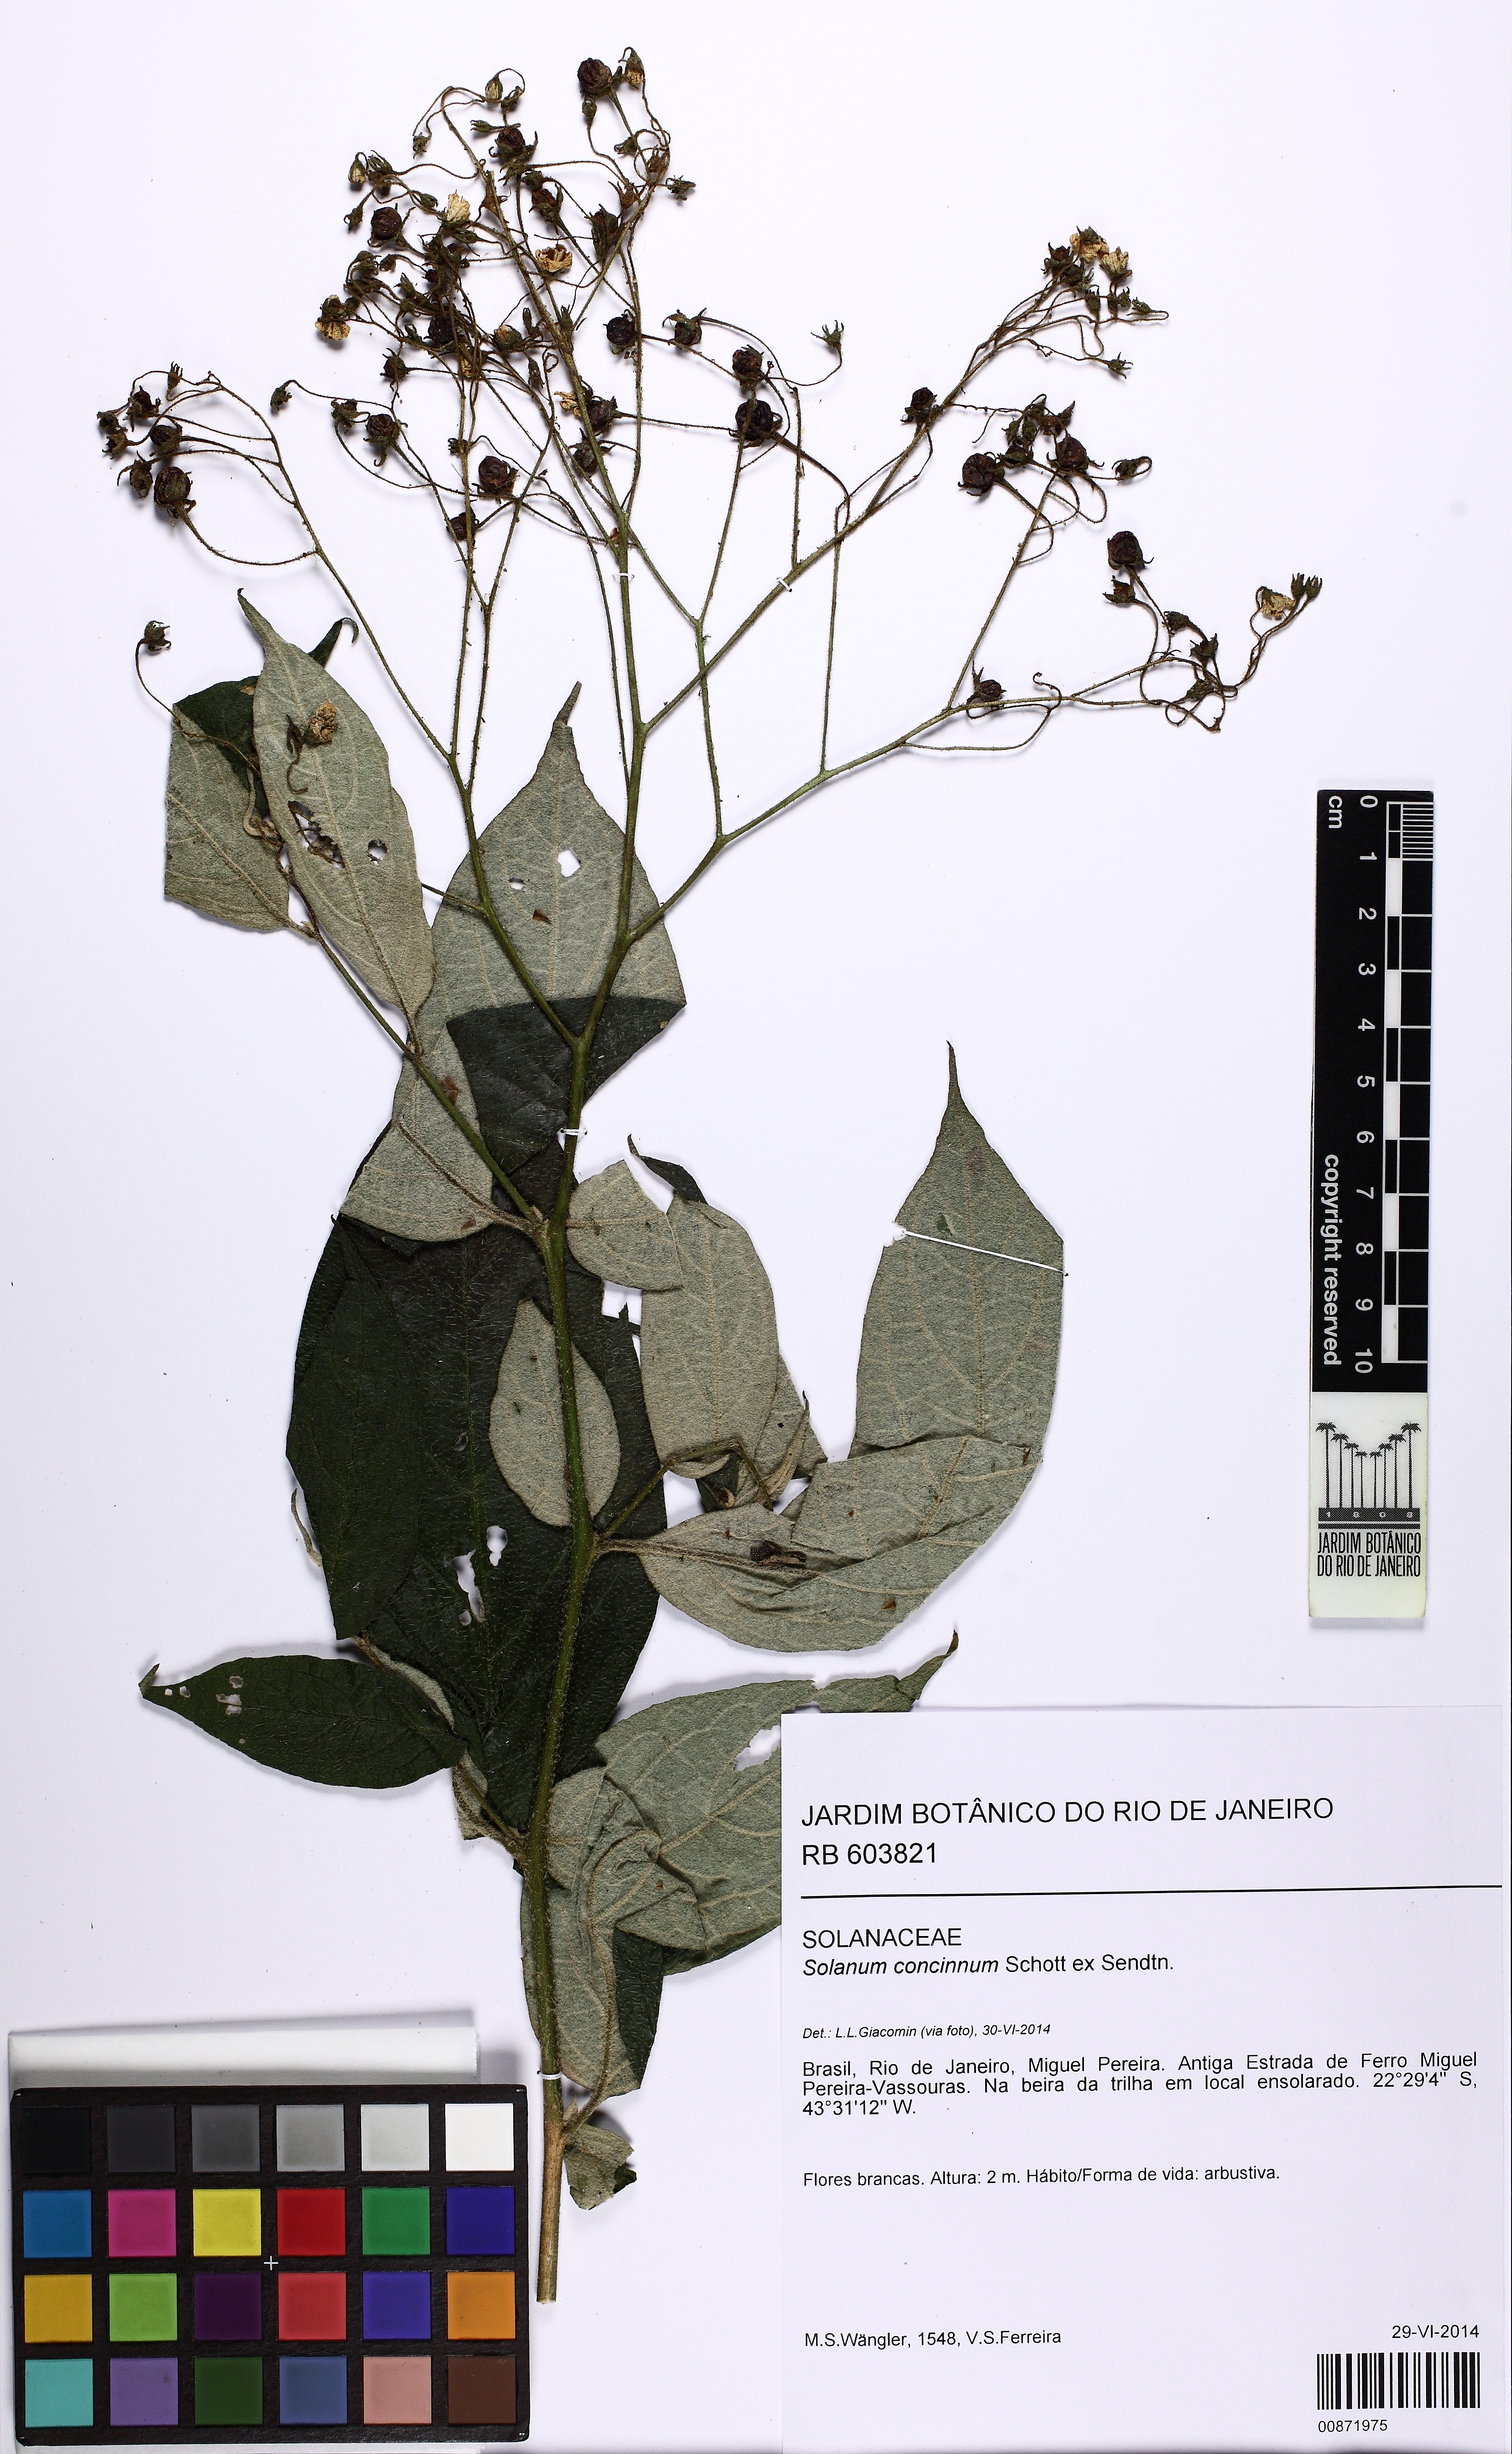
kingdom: Plantae
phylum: Tracheophyta
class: Magnoliopsida
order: Solanales
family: Solanaceae
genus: Solanum
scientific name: Solanum concinnum
